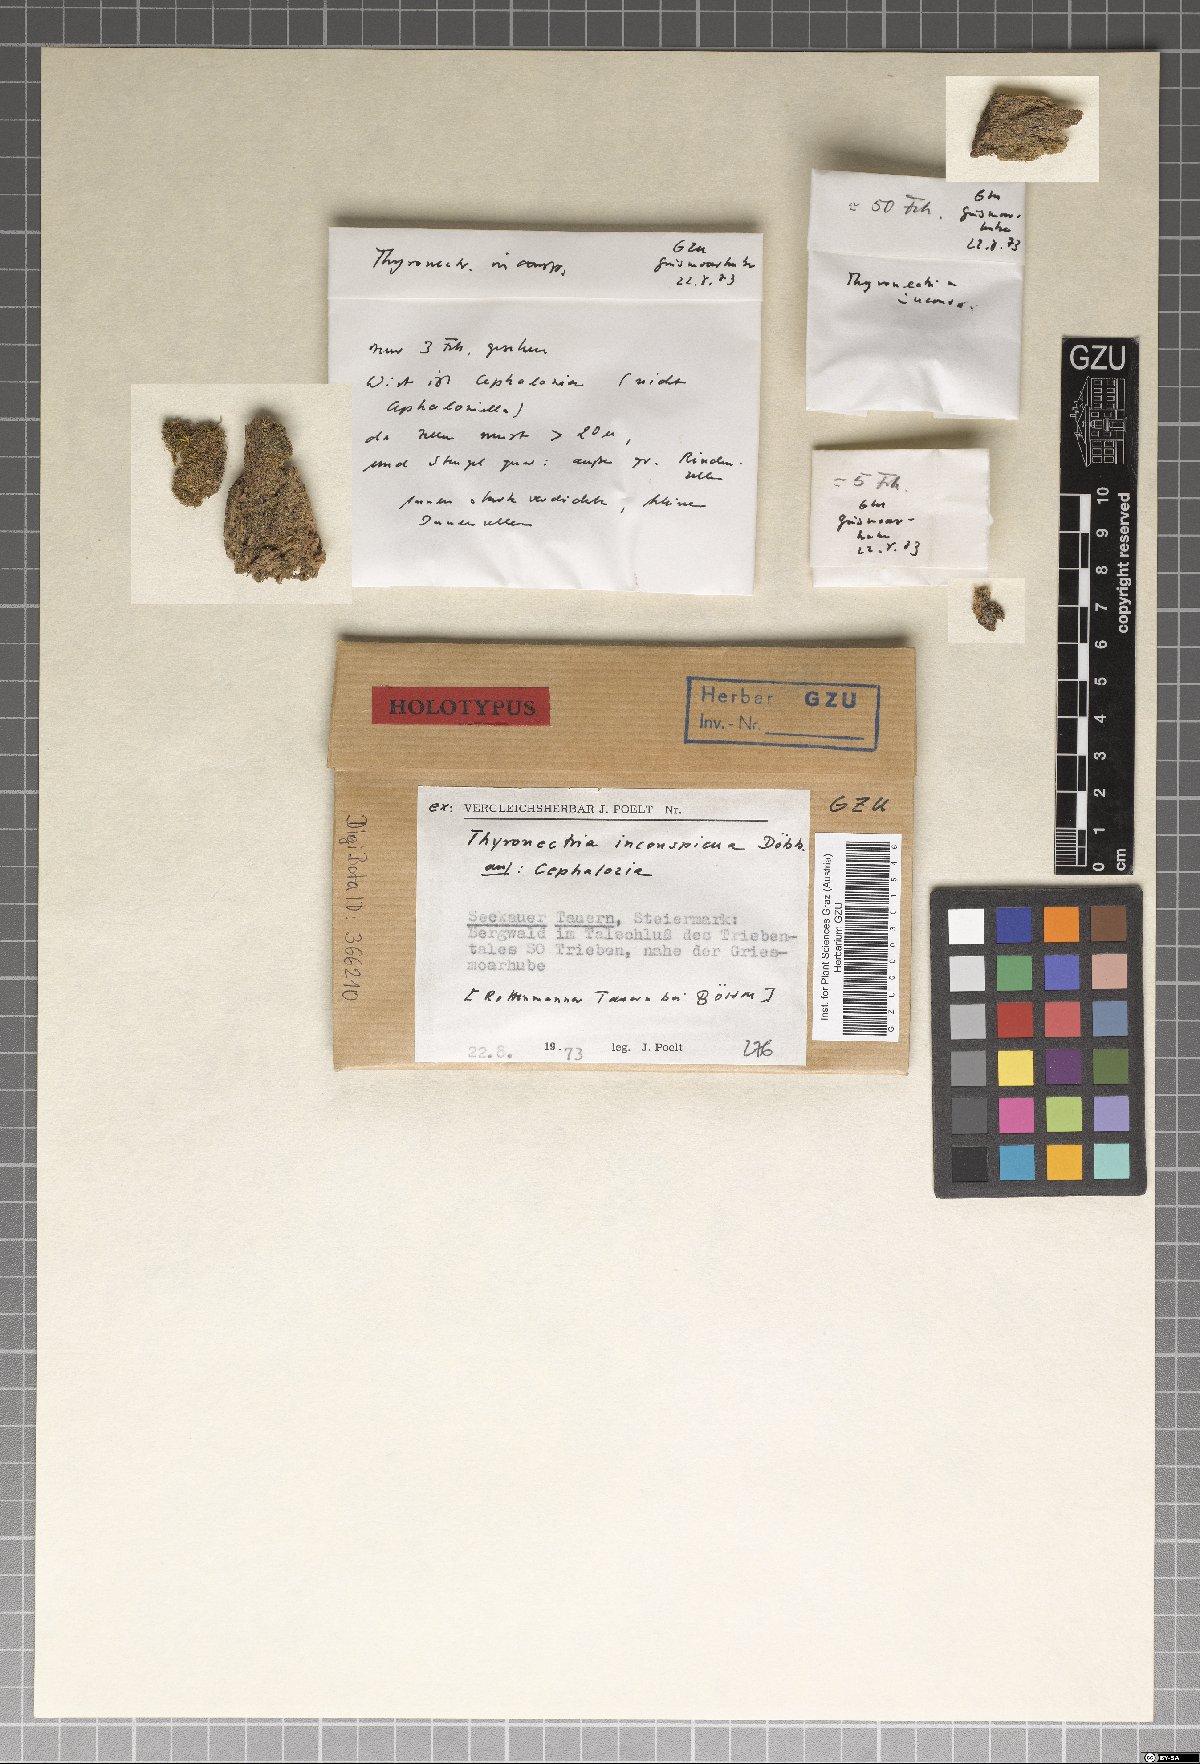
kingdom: Fungi
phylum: Ascomycota
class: Sordariomycetes
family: Thyridiaceae
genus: Thyronectria
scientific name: Thyronectria inconspicua
